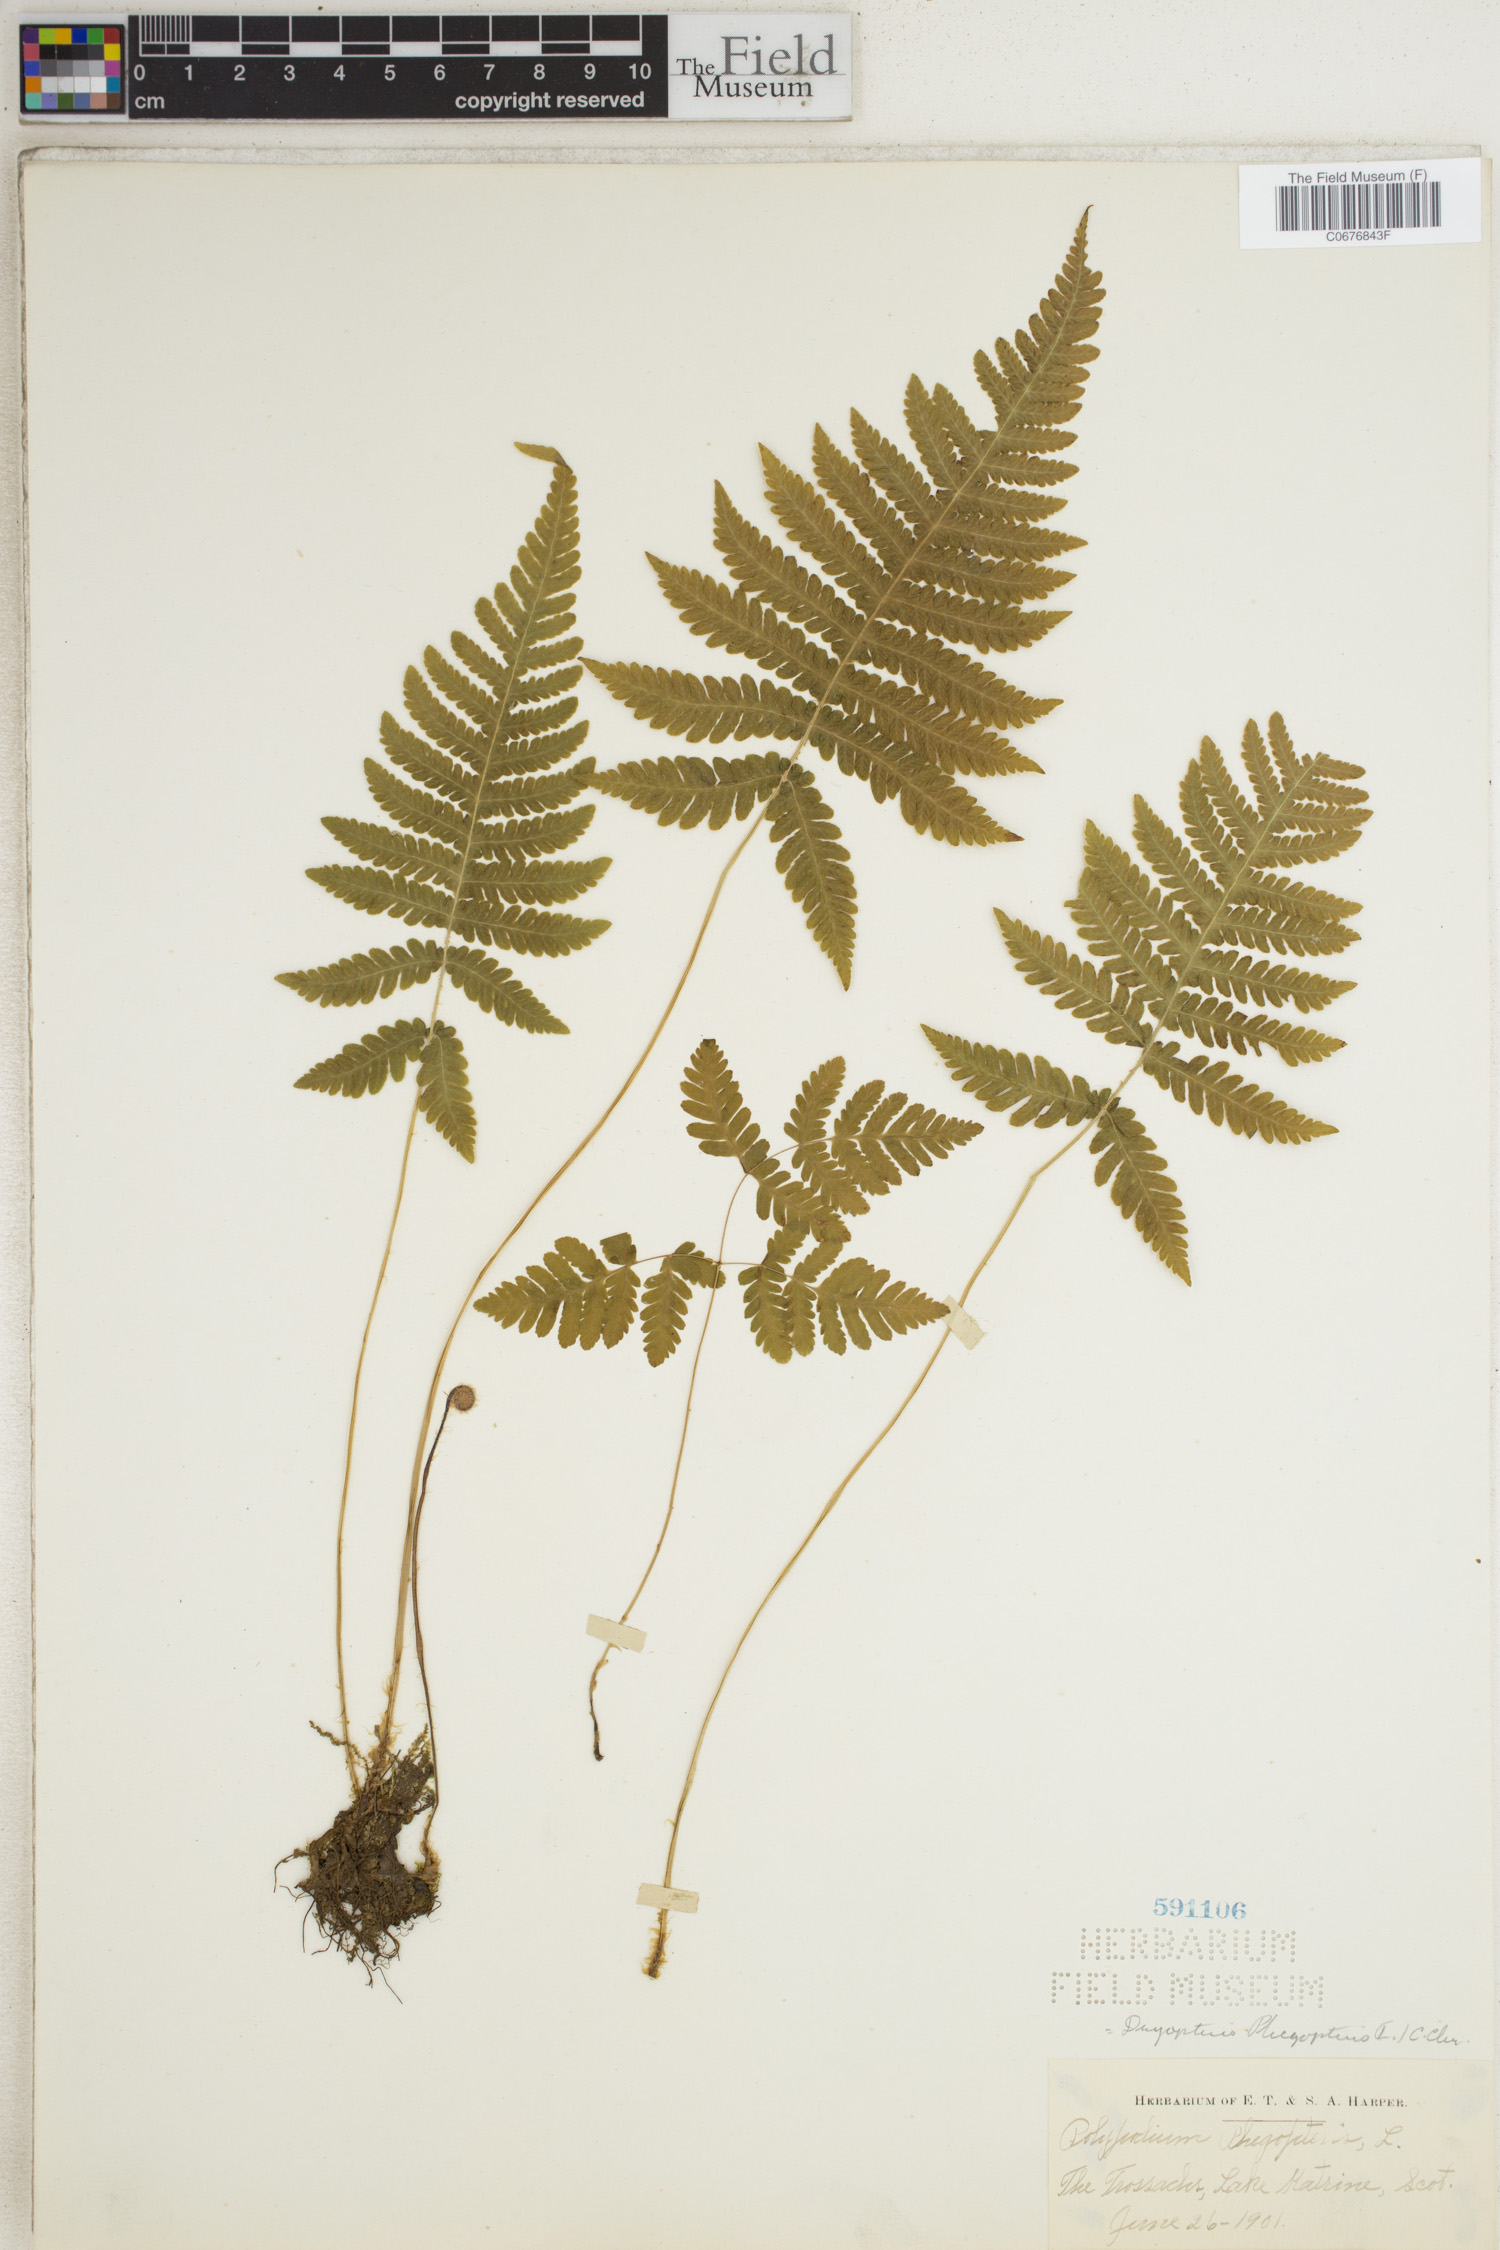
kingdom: Plantae
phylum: Tracheophyta
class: Polypodiopsida
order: Polypodiales
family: Thelypteridaceae
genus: Phegopteris
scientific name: Phegopteris connectilis
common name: Beech fern
